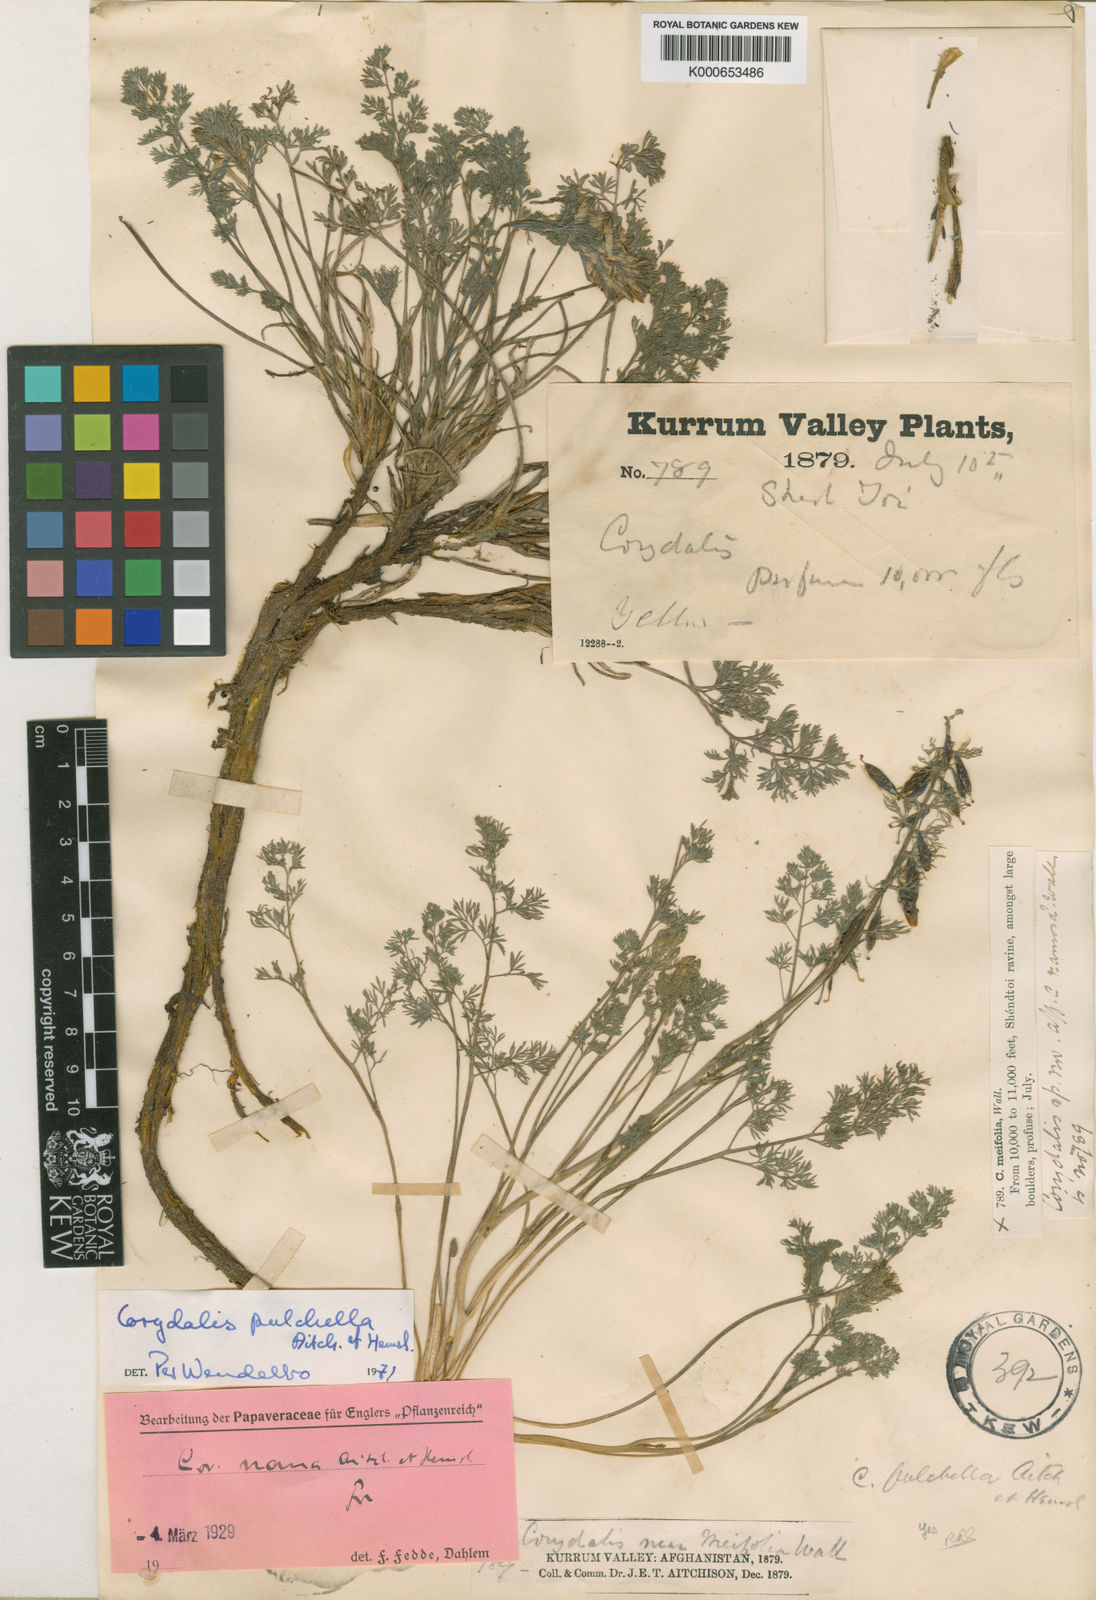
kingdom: Plantae
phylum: Tracheophyta
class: Magnoliopsida
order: Ranunculales
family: Papaveraceae
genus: Corydalis
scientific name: Corydalis pulchella
